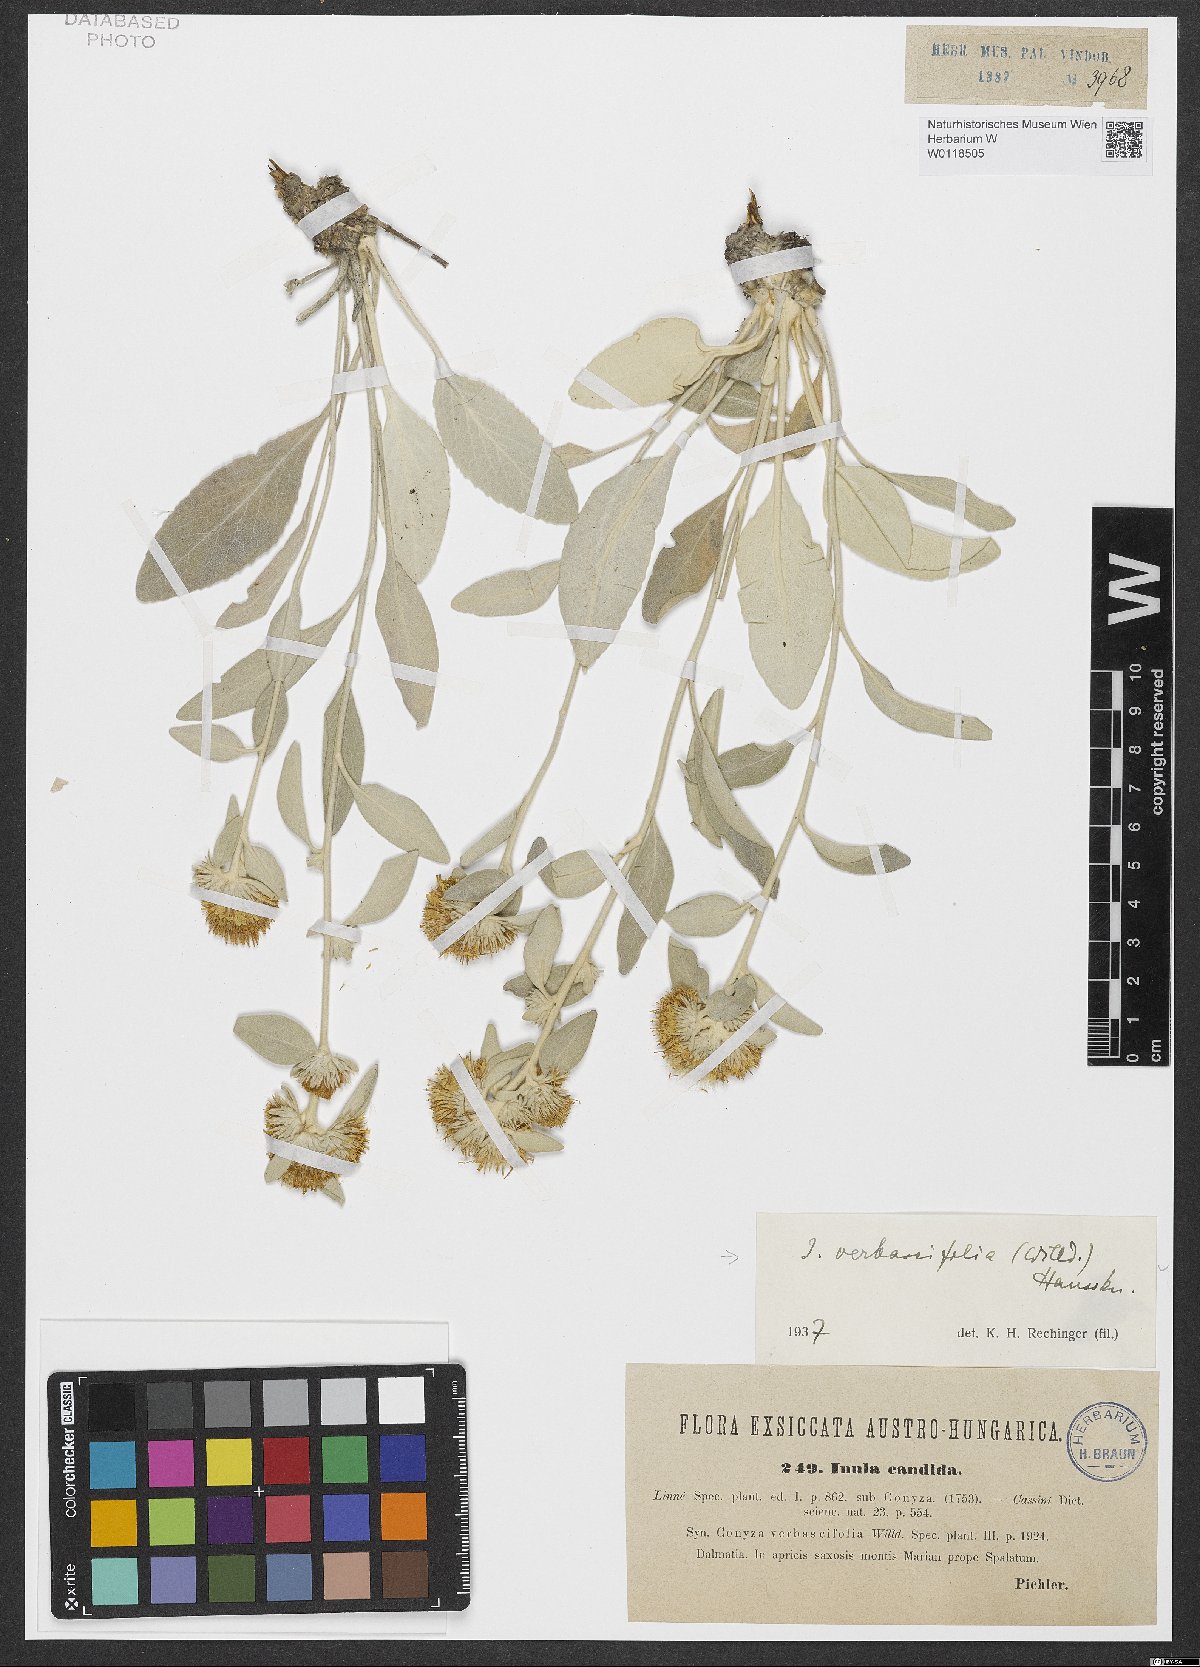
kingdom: Plantae
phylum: Tracheophyta
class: Magnoliopsida
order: Asterales
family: Asteraceae
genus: Pentanema
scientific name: Pentanema verbascifolium
